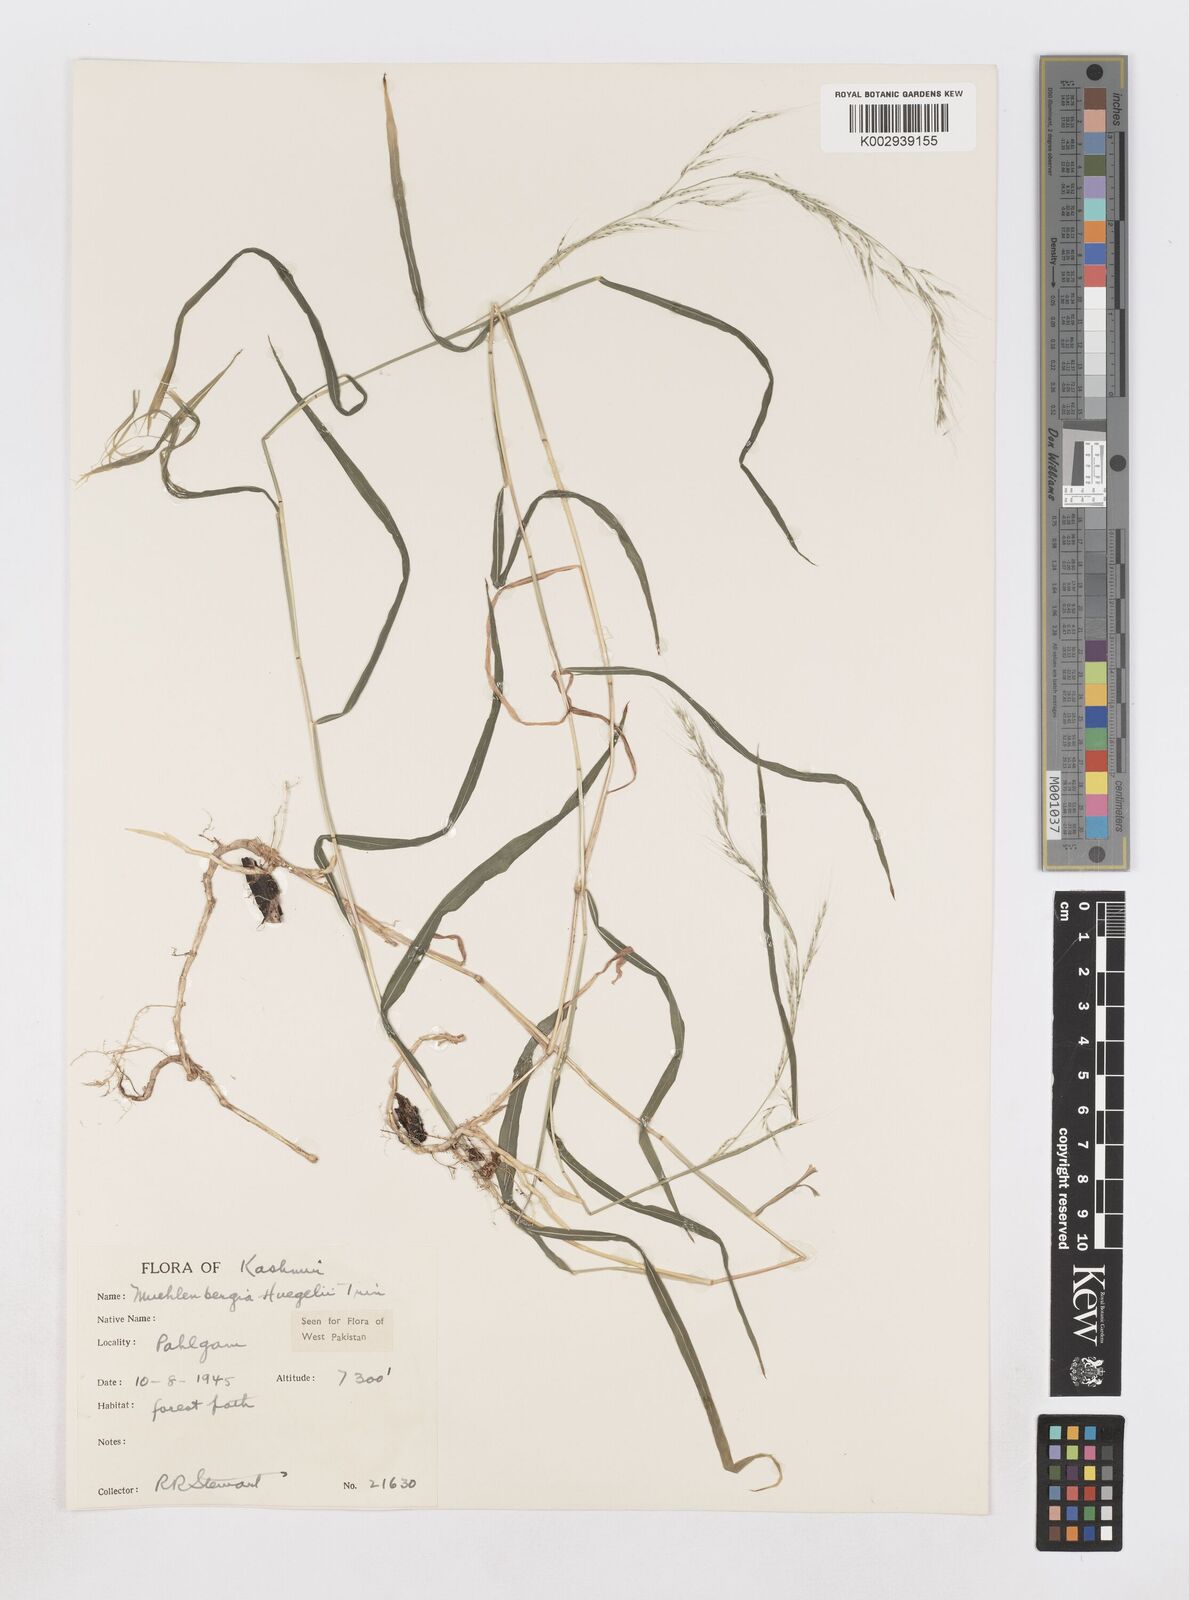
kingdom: Plantae
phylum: Tracheophyta
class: Liliopsida
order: Poales
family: Poaceae
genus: Muhlenbergia
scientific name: Muhlenbergia huegelii
